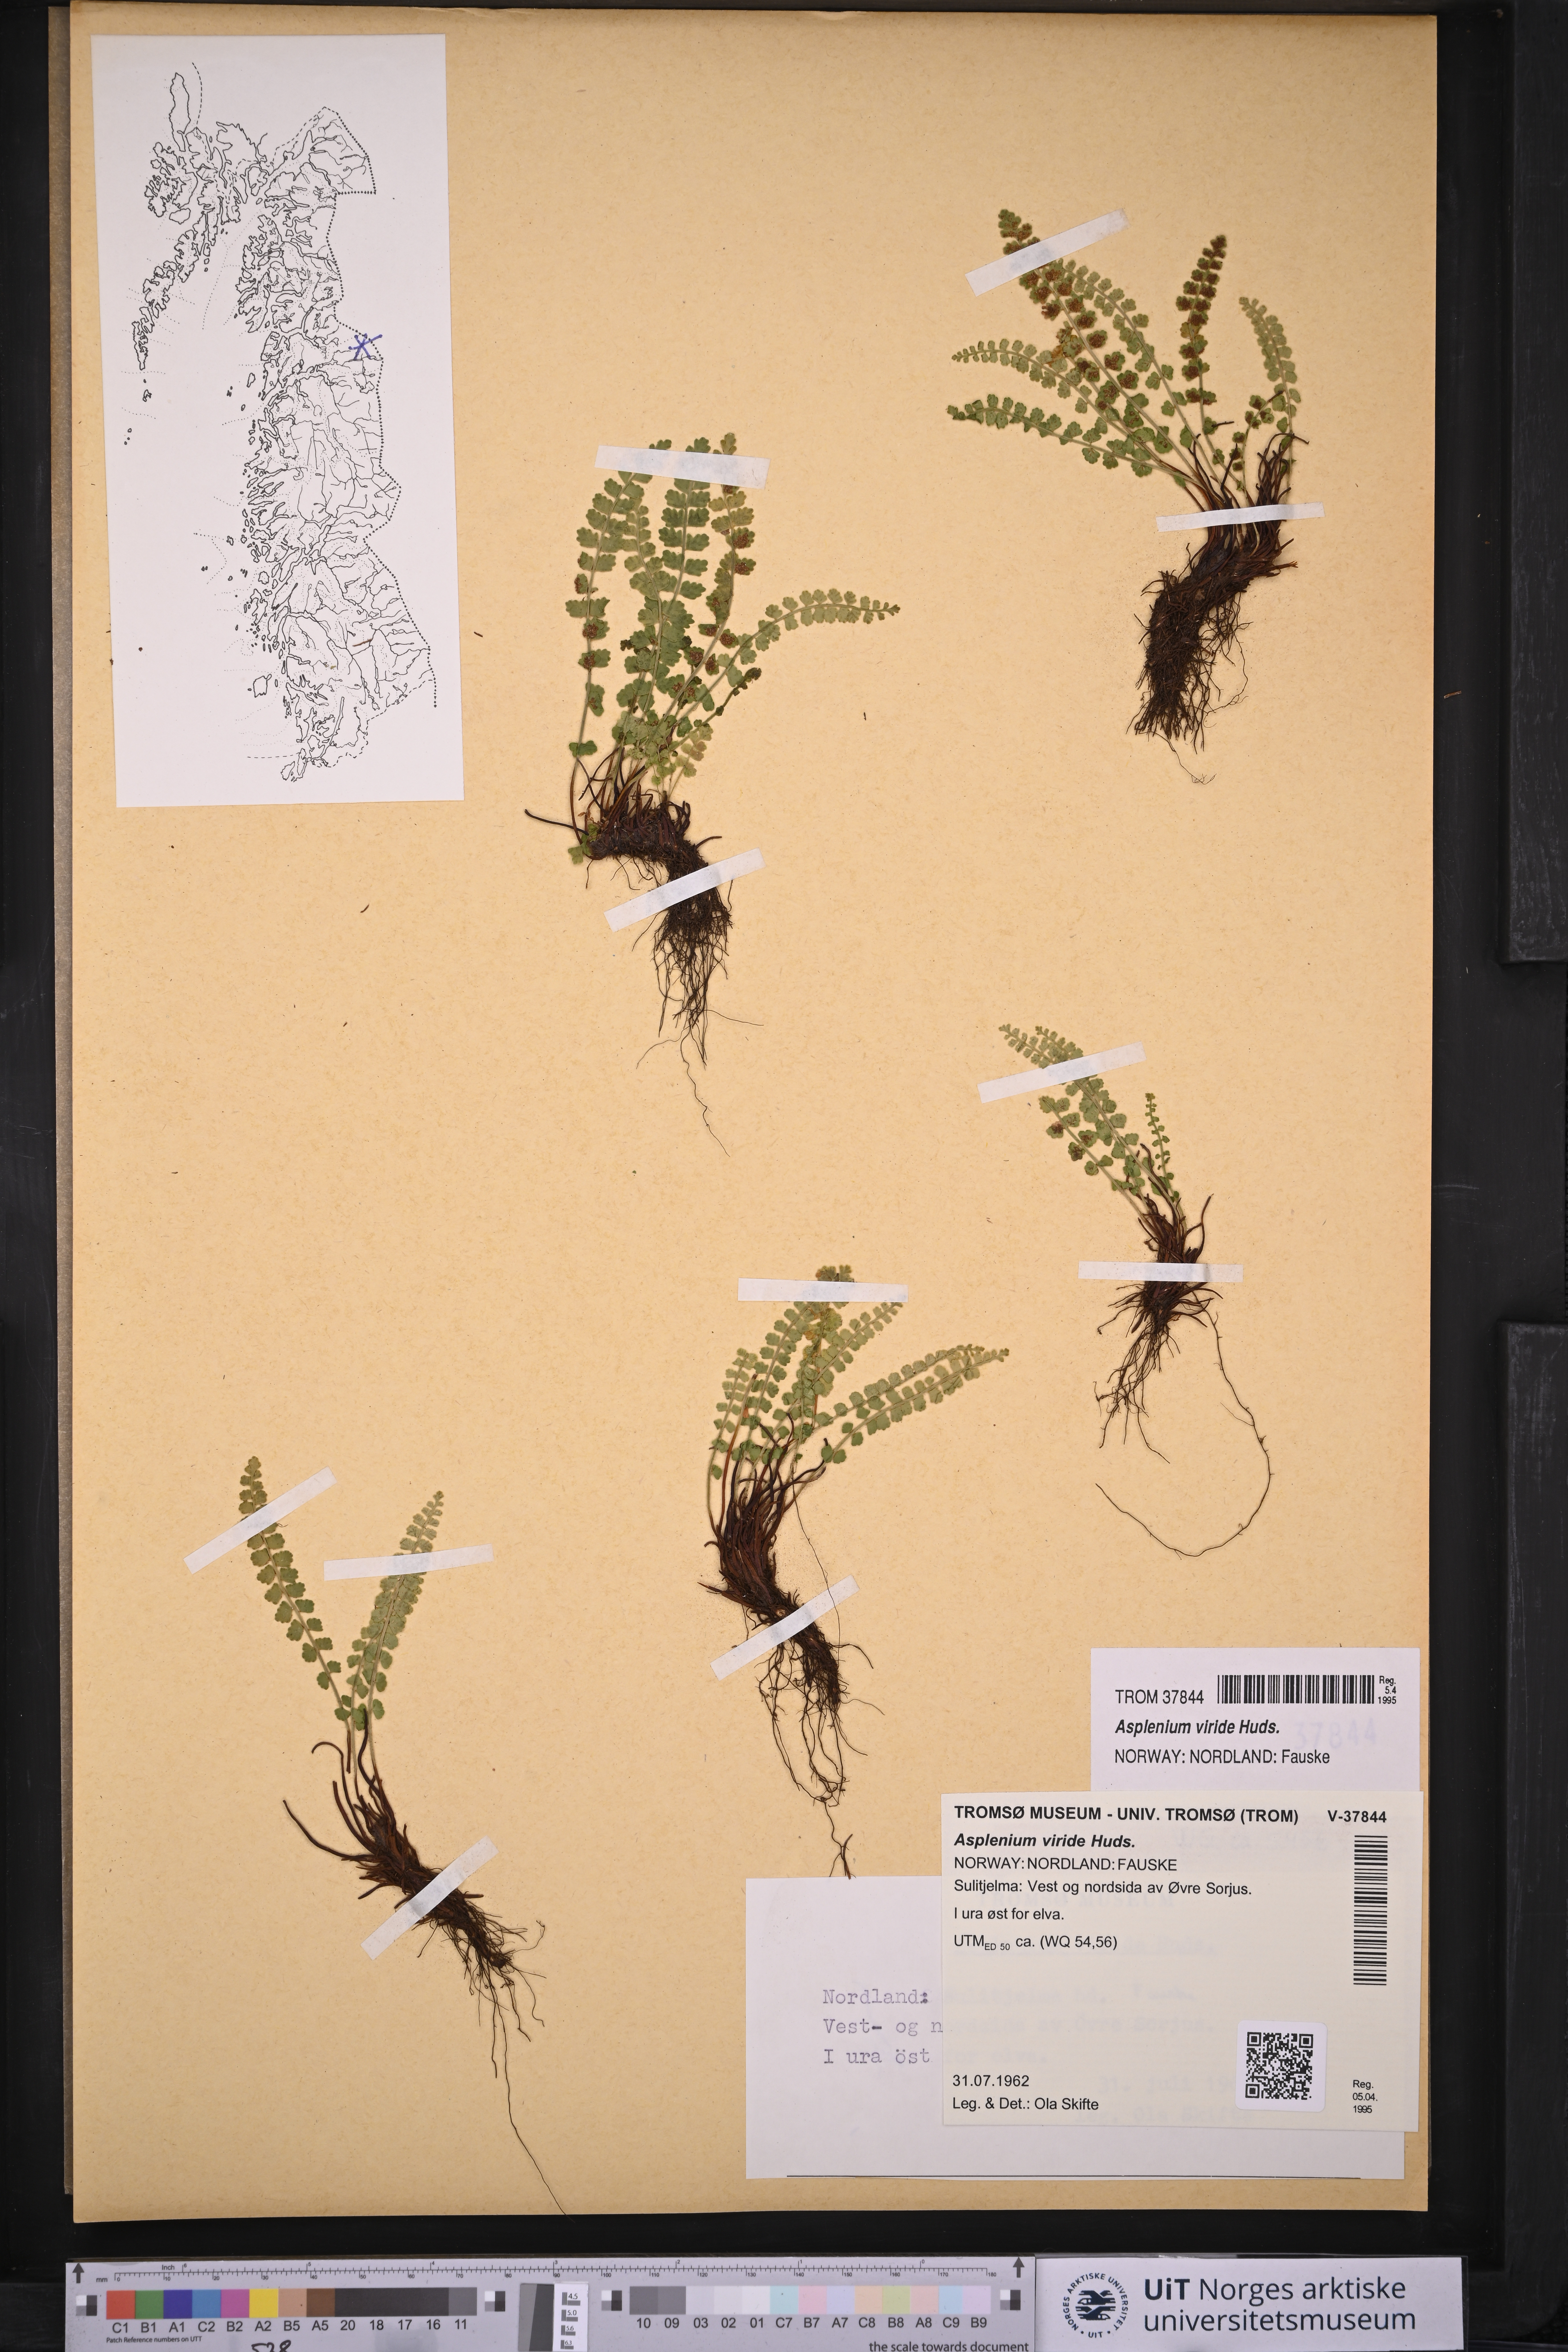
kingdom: Plantae
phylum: Tracheophyta
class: Polypodiopsida
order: Polypodiales
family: Aspleniaceae
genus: Asplenium
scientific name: Asplenium viride
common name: Green spleenwort
